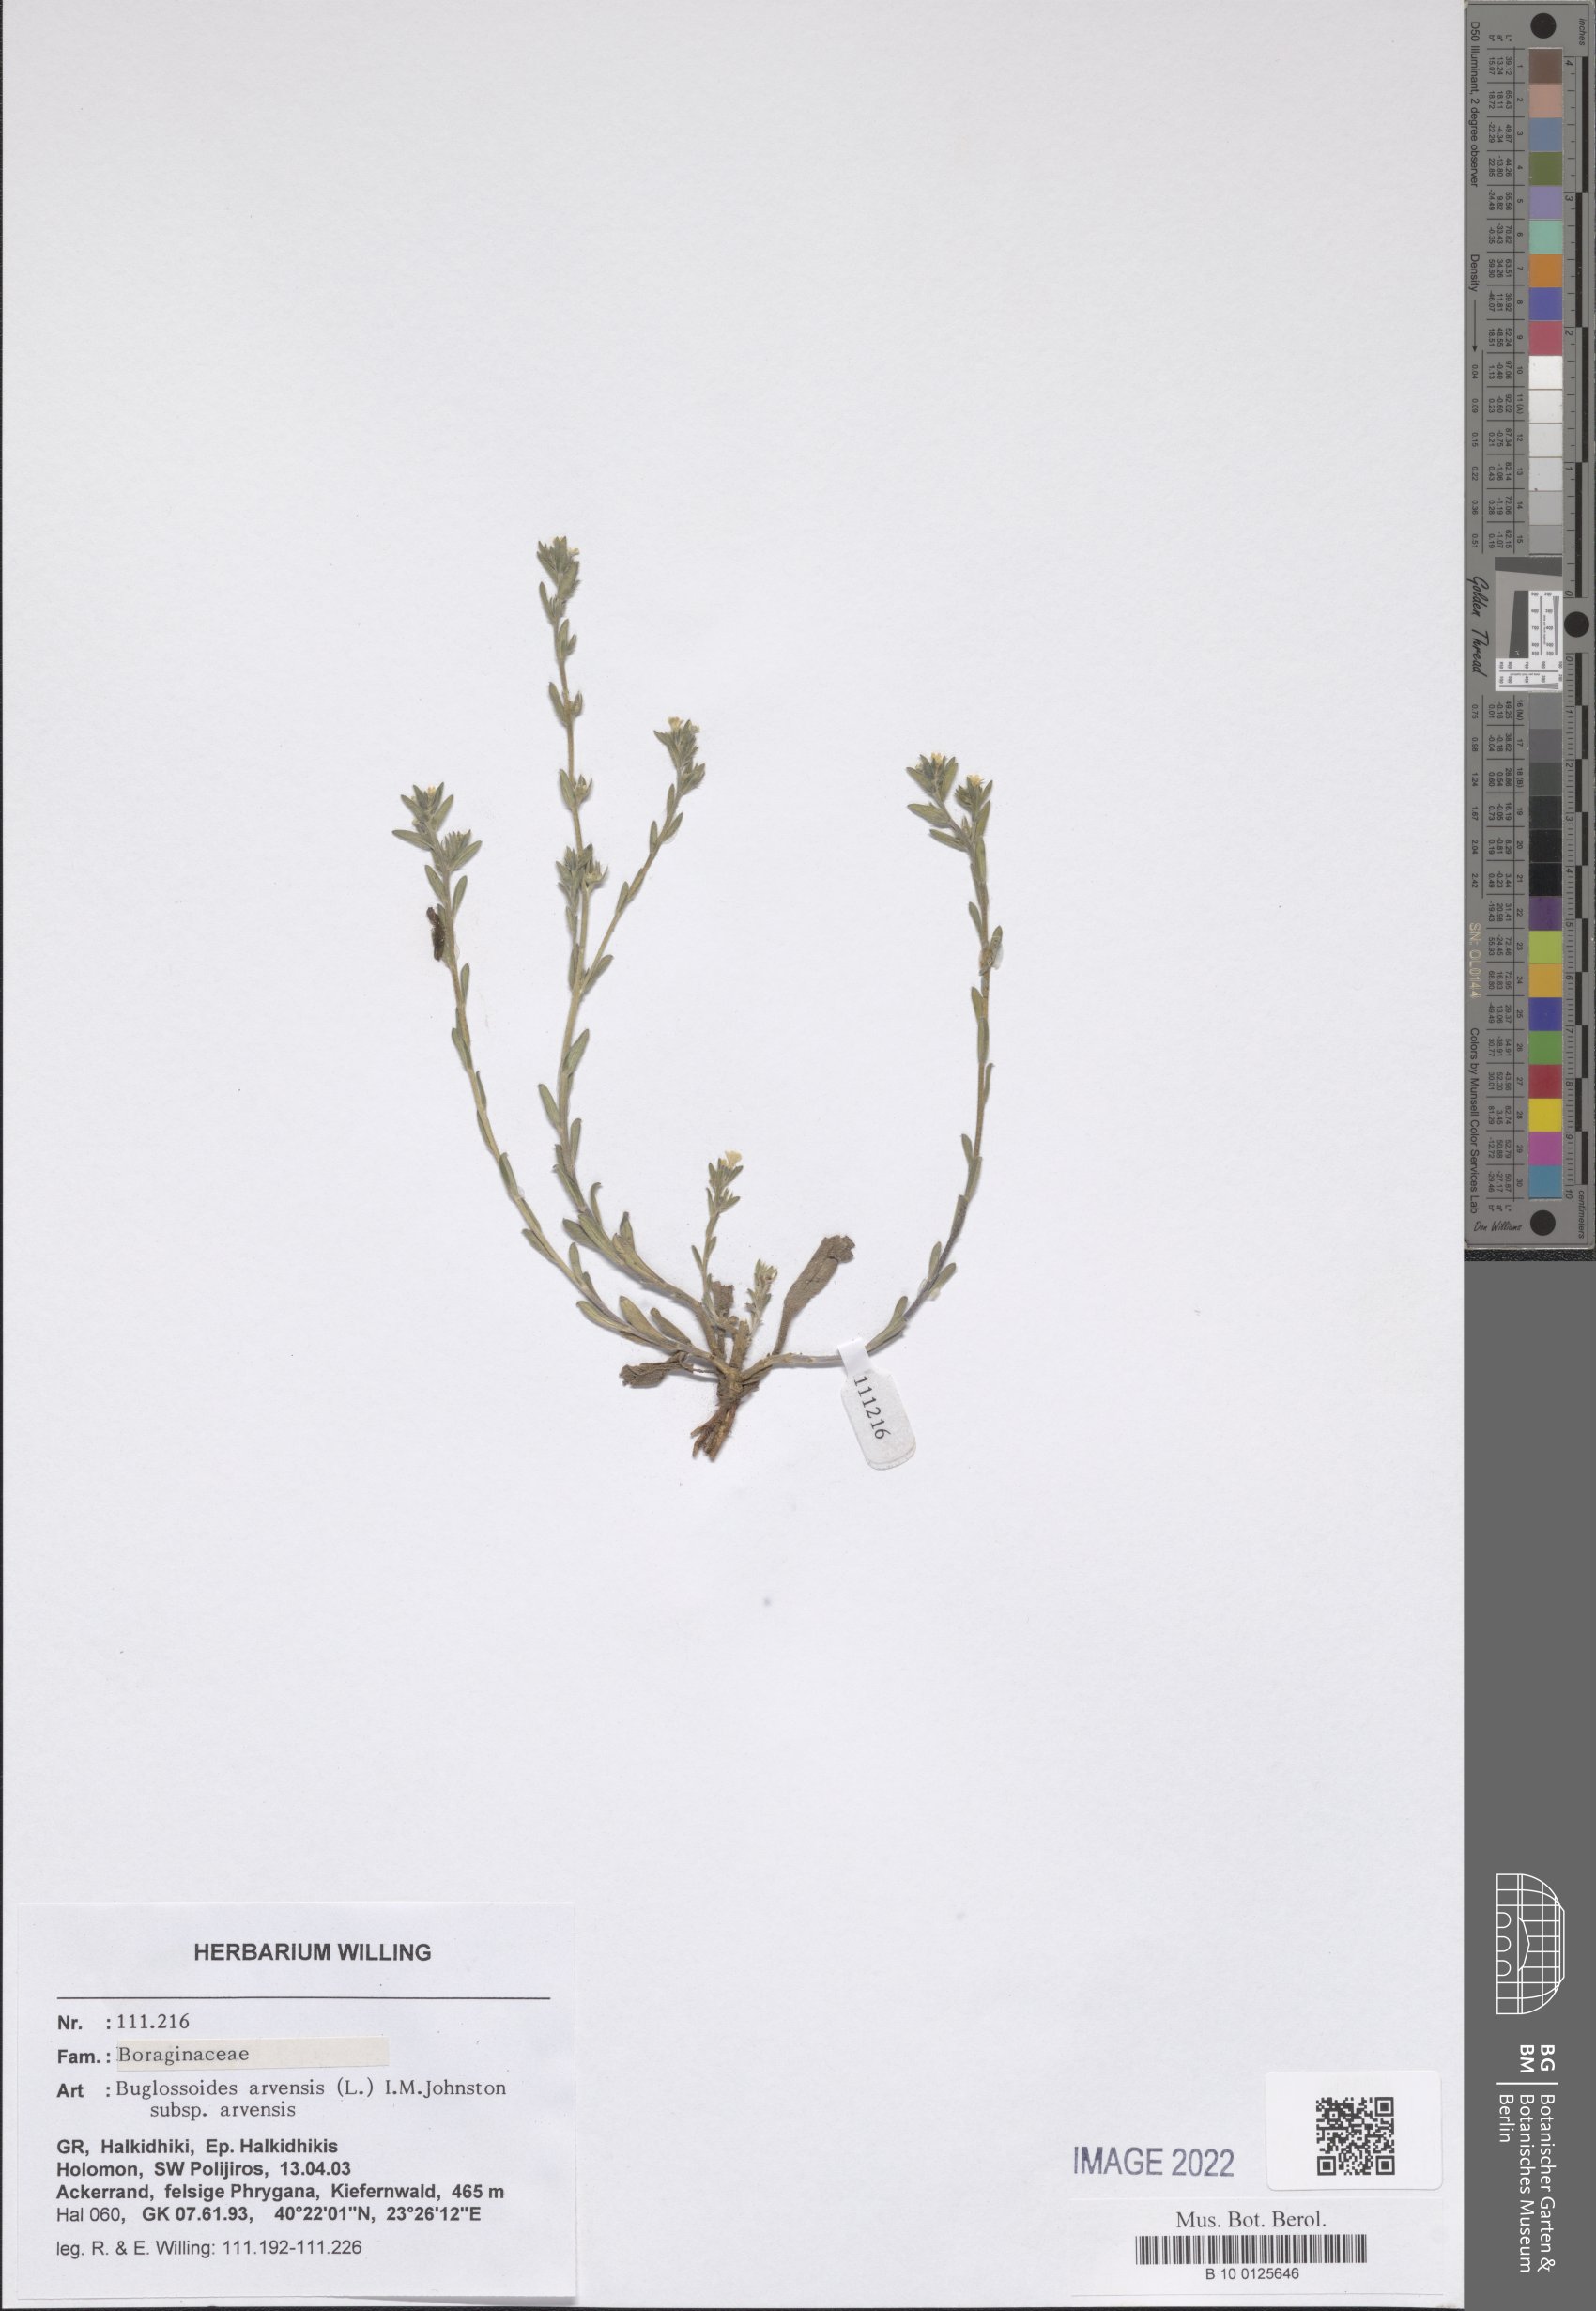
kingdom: Plantae
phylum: Tracheophyta
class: Magnoliopsida
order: Boraginales
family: Boraginaceae
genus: Buglossoides
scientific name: Buglossoides arvensis
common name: Corn gromwell
